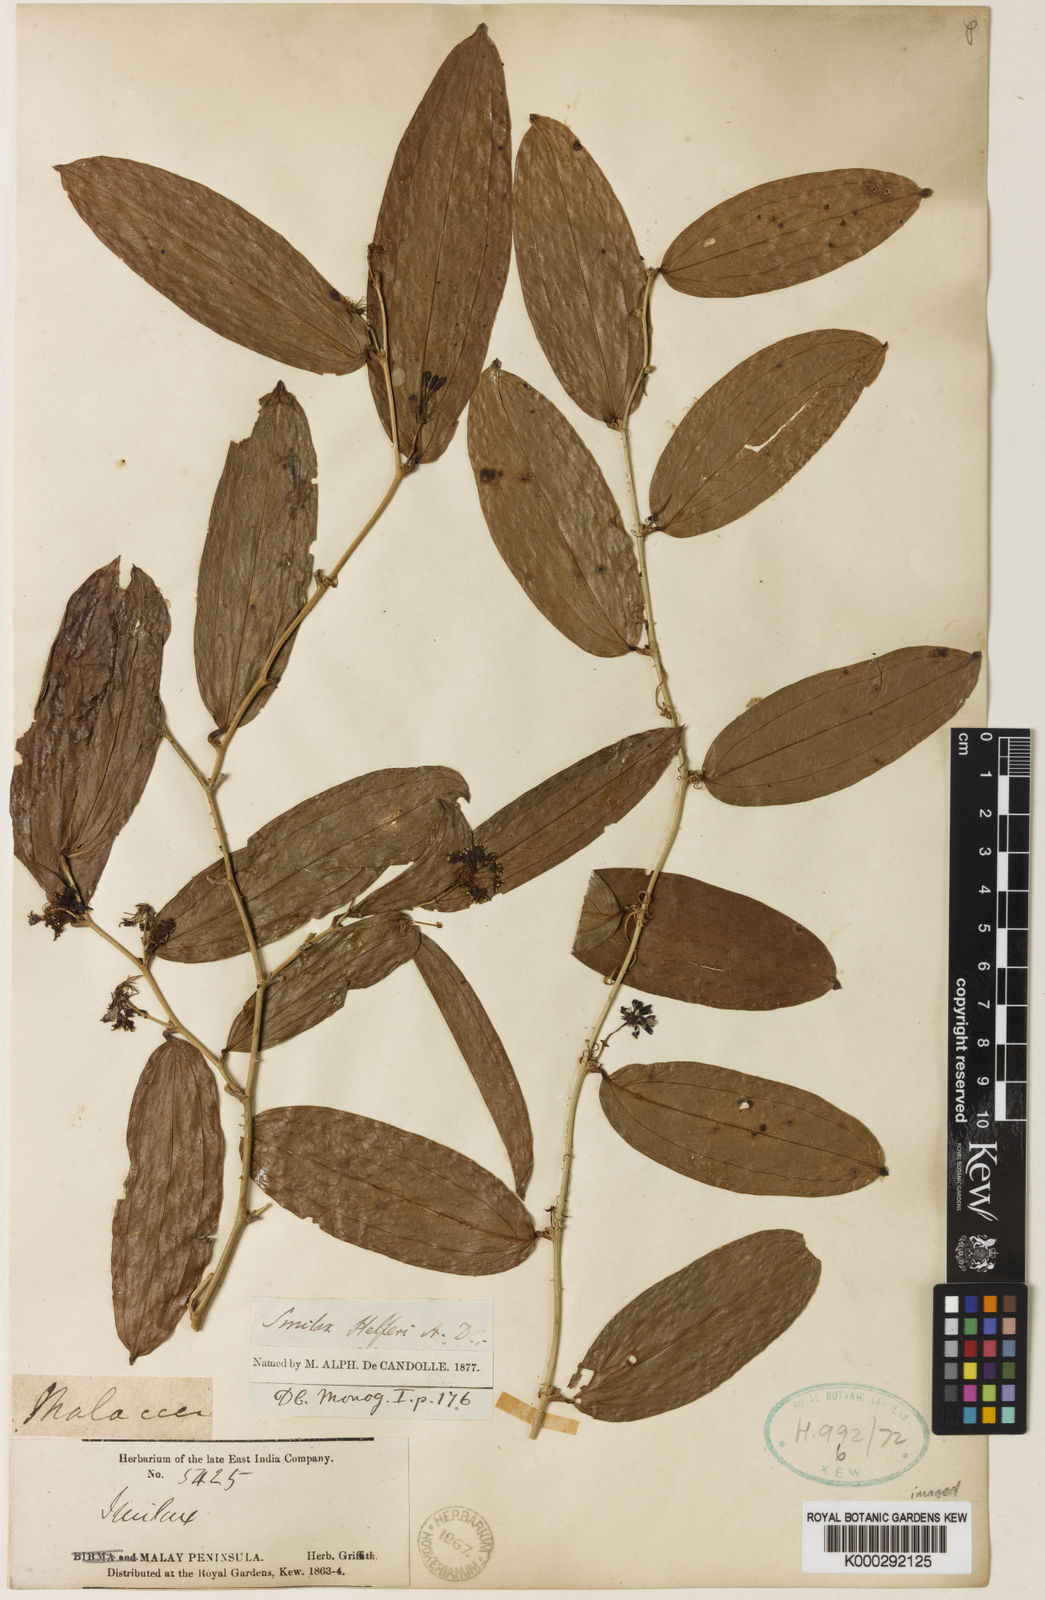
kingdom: Plantae
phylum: Tracheophyta
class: Liliopsida
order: Liliales
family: Smilacaceae
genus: Smilax
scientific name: Smilax luzonensis
